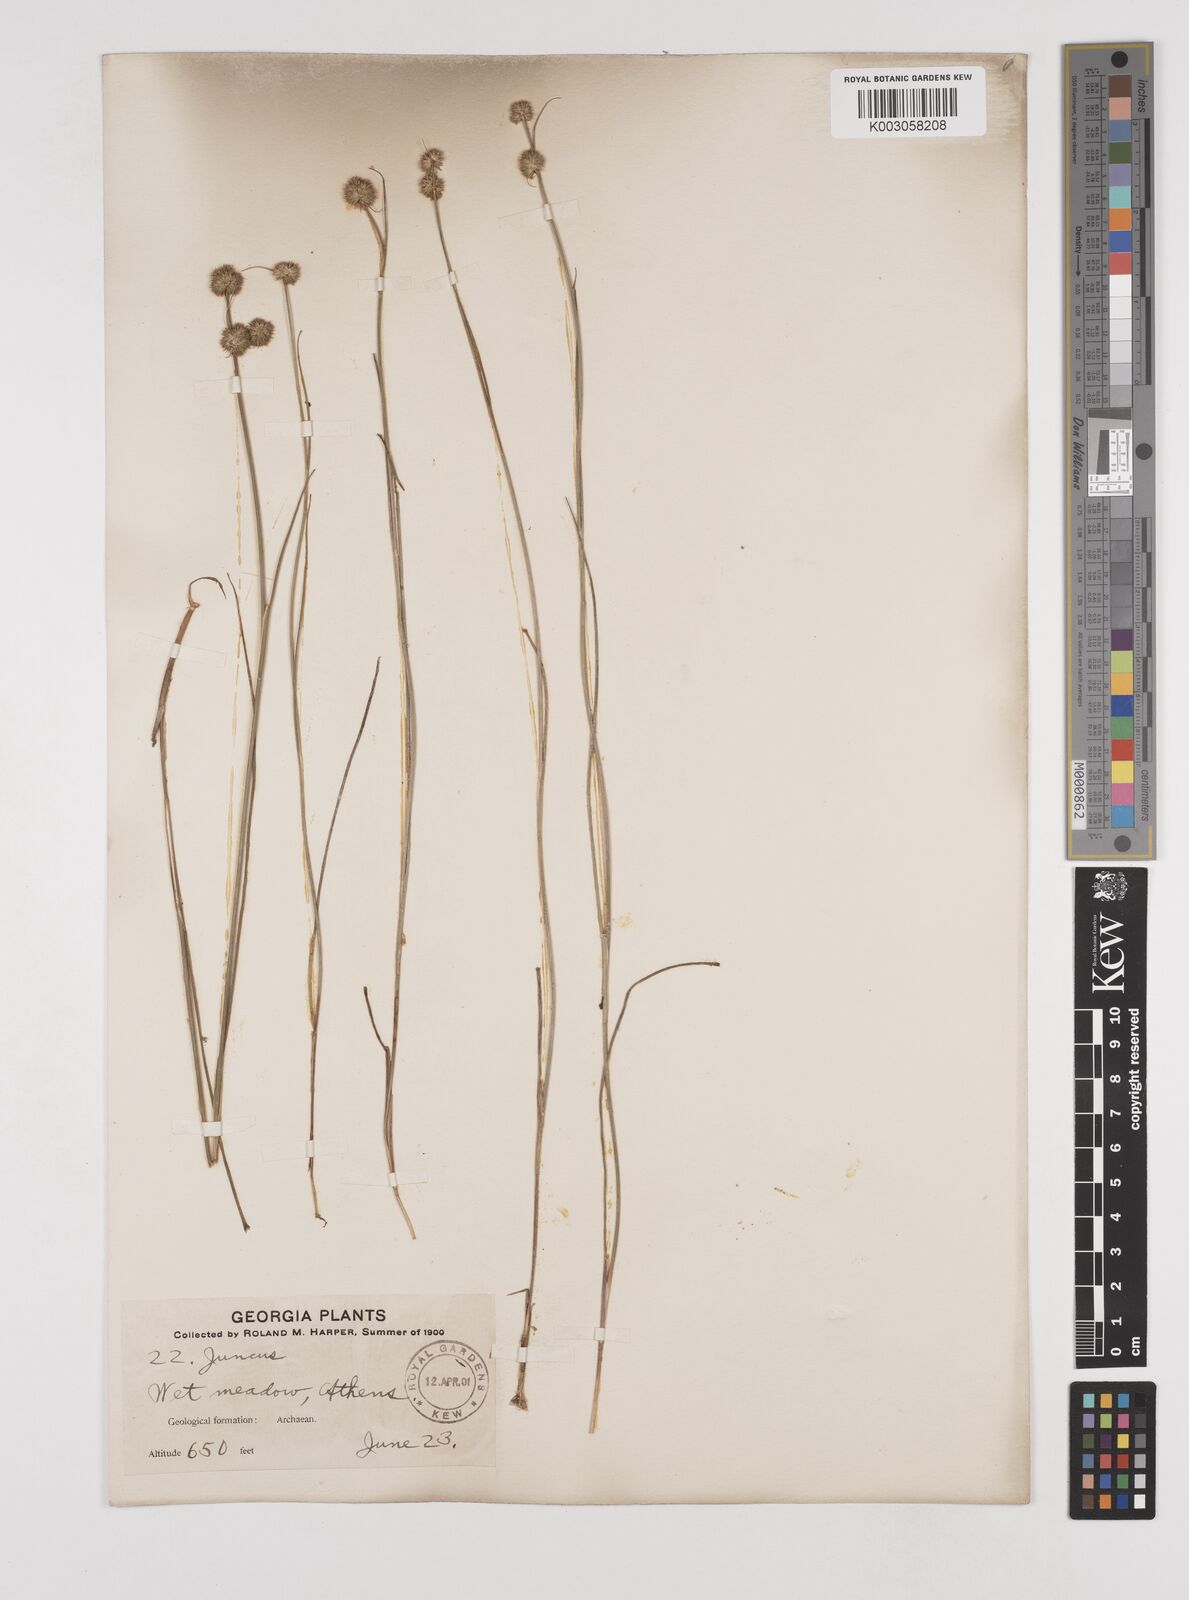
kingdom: Plantae
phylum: Tracheophyta
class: Liliopsida
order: Poales
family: Juncaceae
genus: Juncus
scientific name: Juncus
